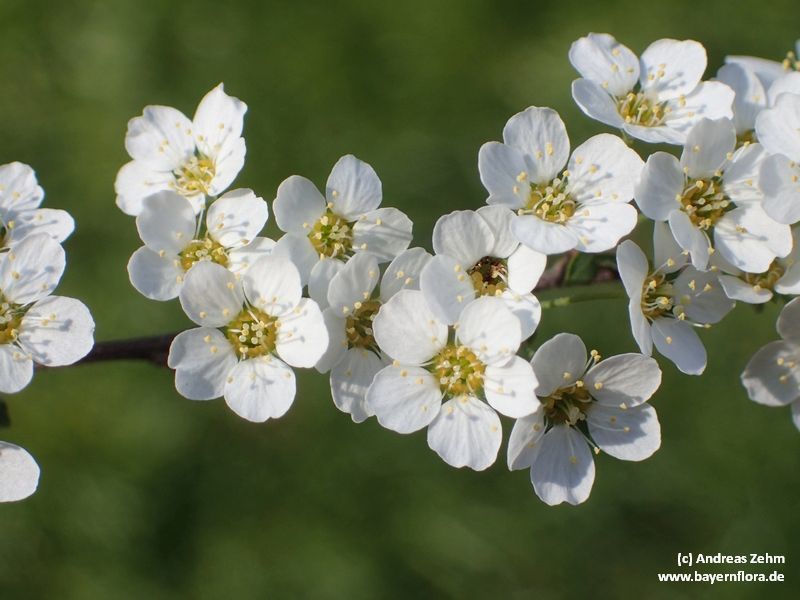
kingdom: Plantae
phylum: Tracheophyta
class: Magnoliopsida
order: Rosales
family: Rosaceae
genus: Spiraea
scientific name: Spiraea chamaedryfolia
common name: Elm-leaved spiraea
